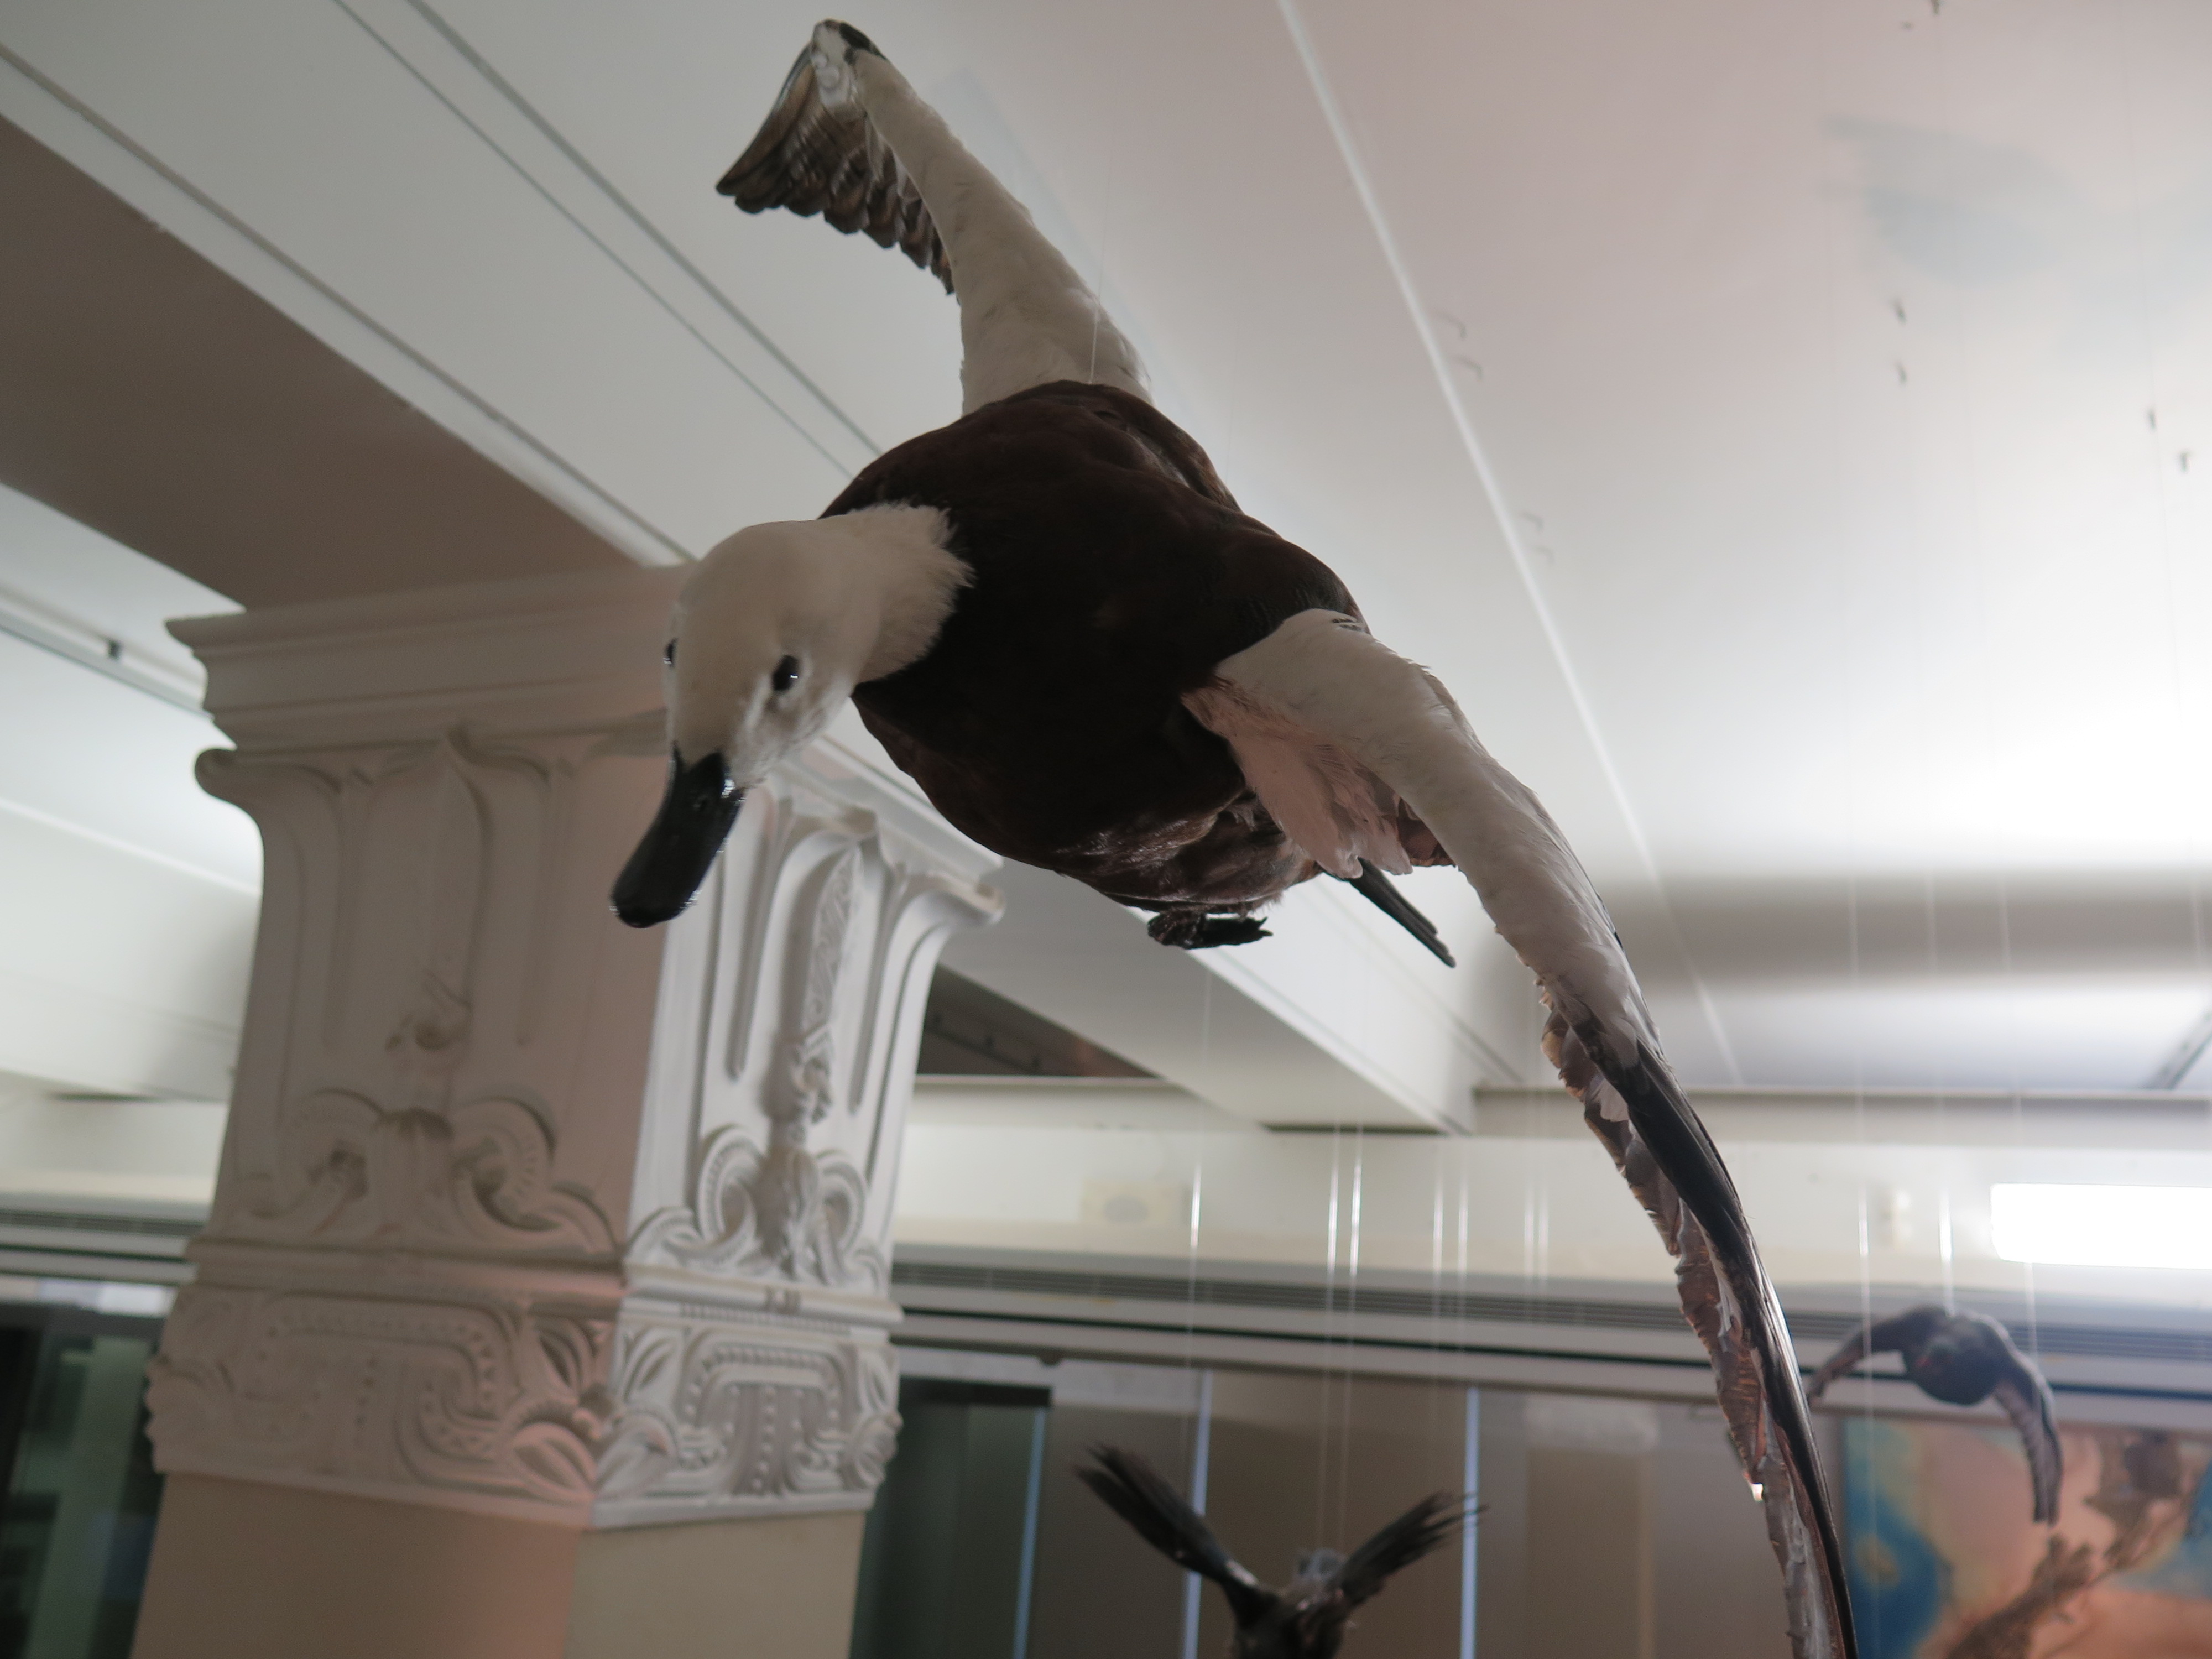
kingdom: Animalia
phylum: Chordata
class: Aves
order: Anseriformes
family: Anatidae
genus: Tadorna
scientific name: Tadorna variegata
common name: Paradise shelduck
